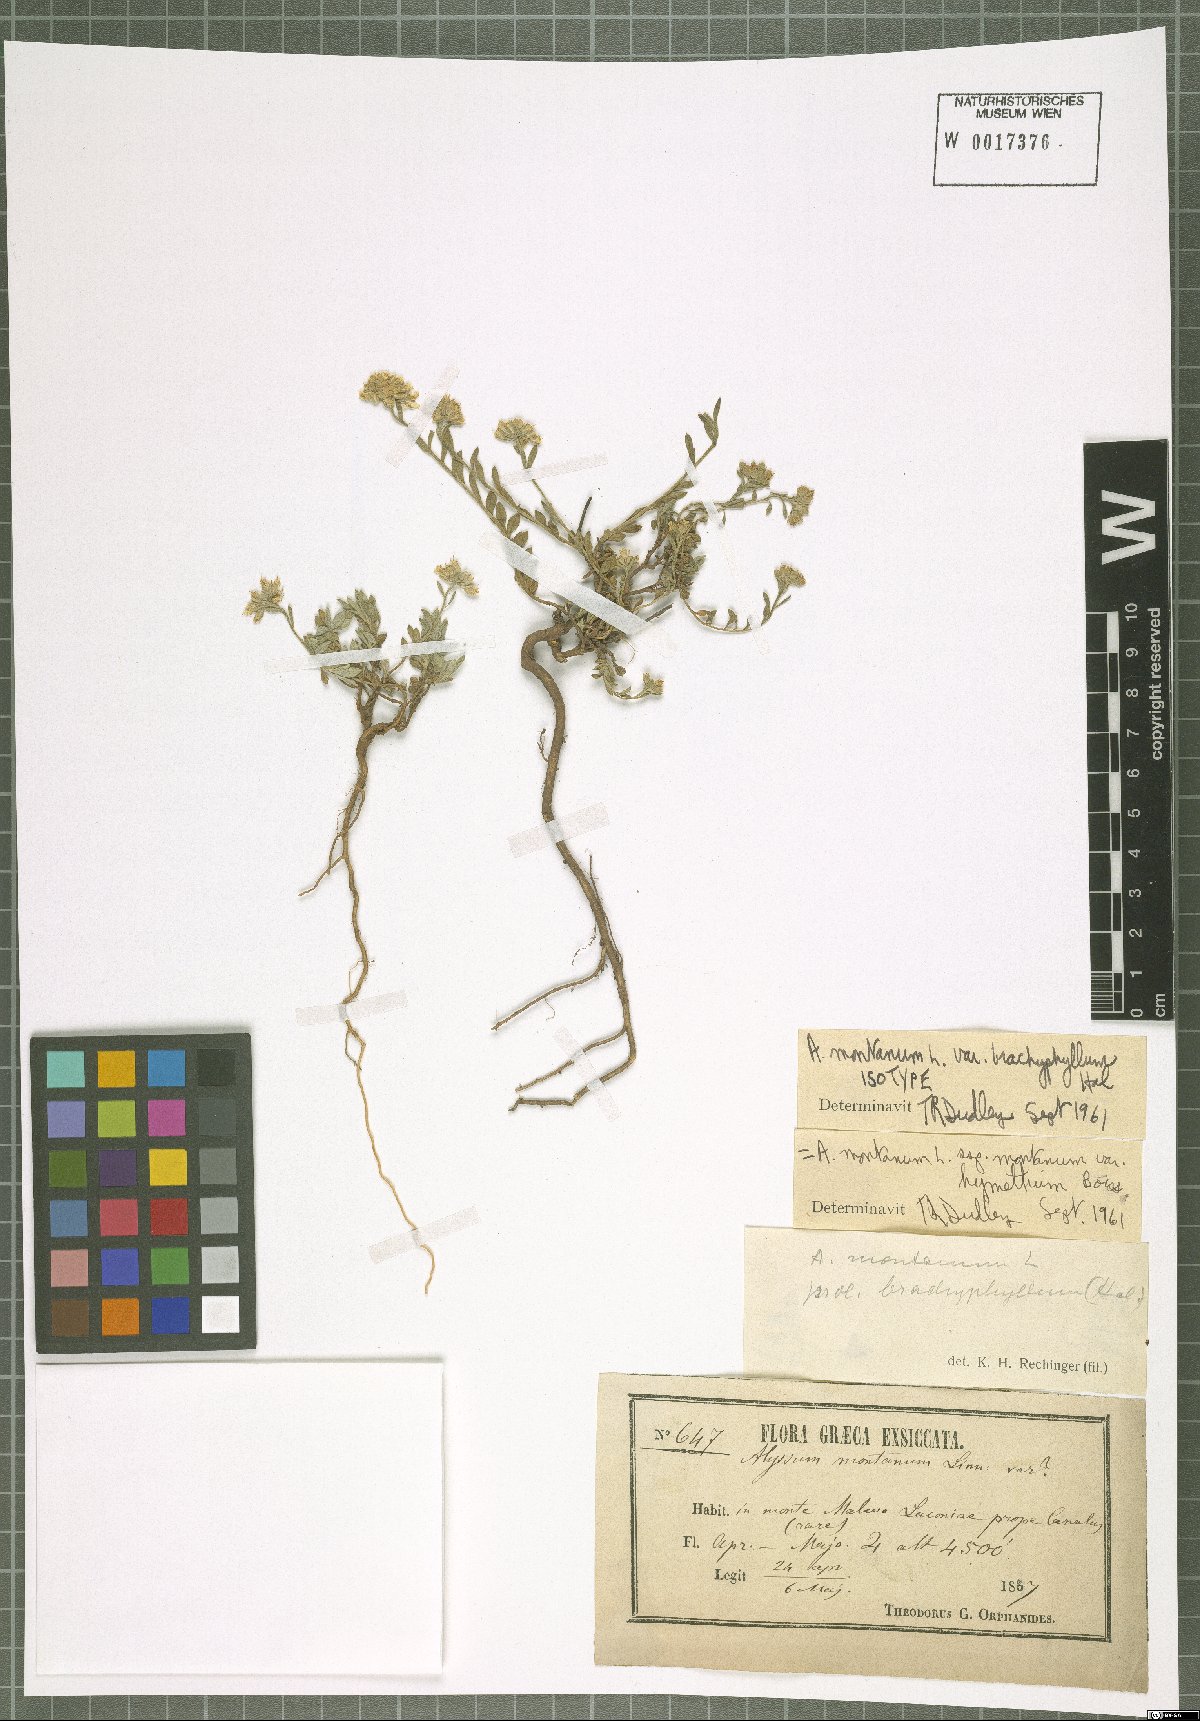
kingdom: Plantae
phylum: Tracheophyta
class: Magnoliopsida
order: Brassicales
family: Brassicaceae
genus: Alyssum
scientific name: Alyssum montanum
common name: Mountain alison
